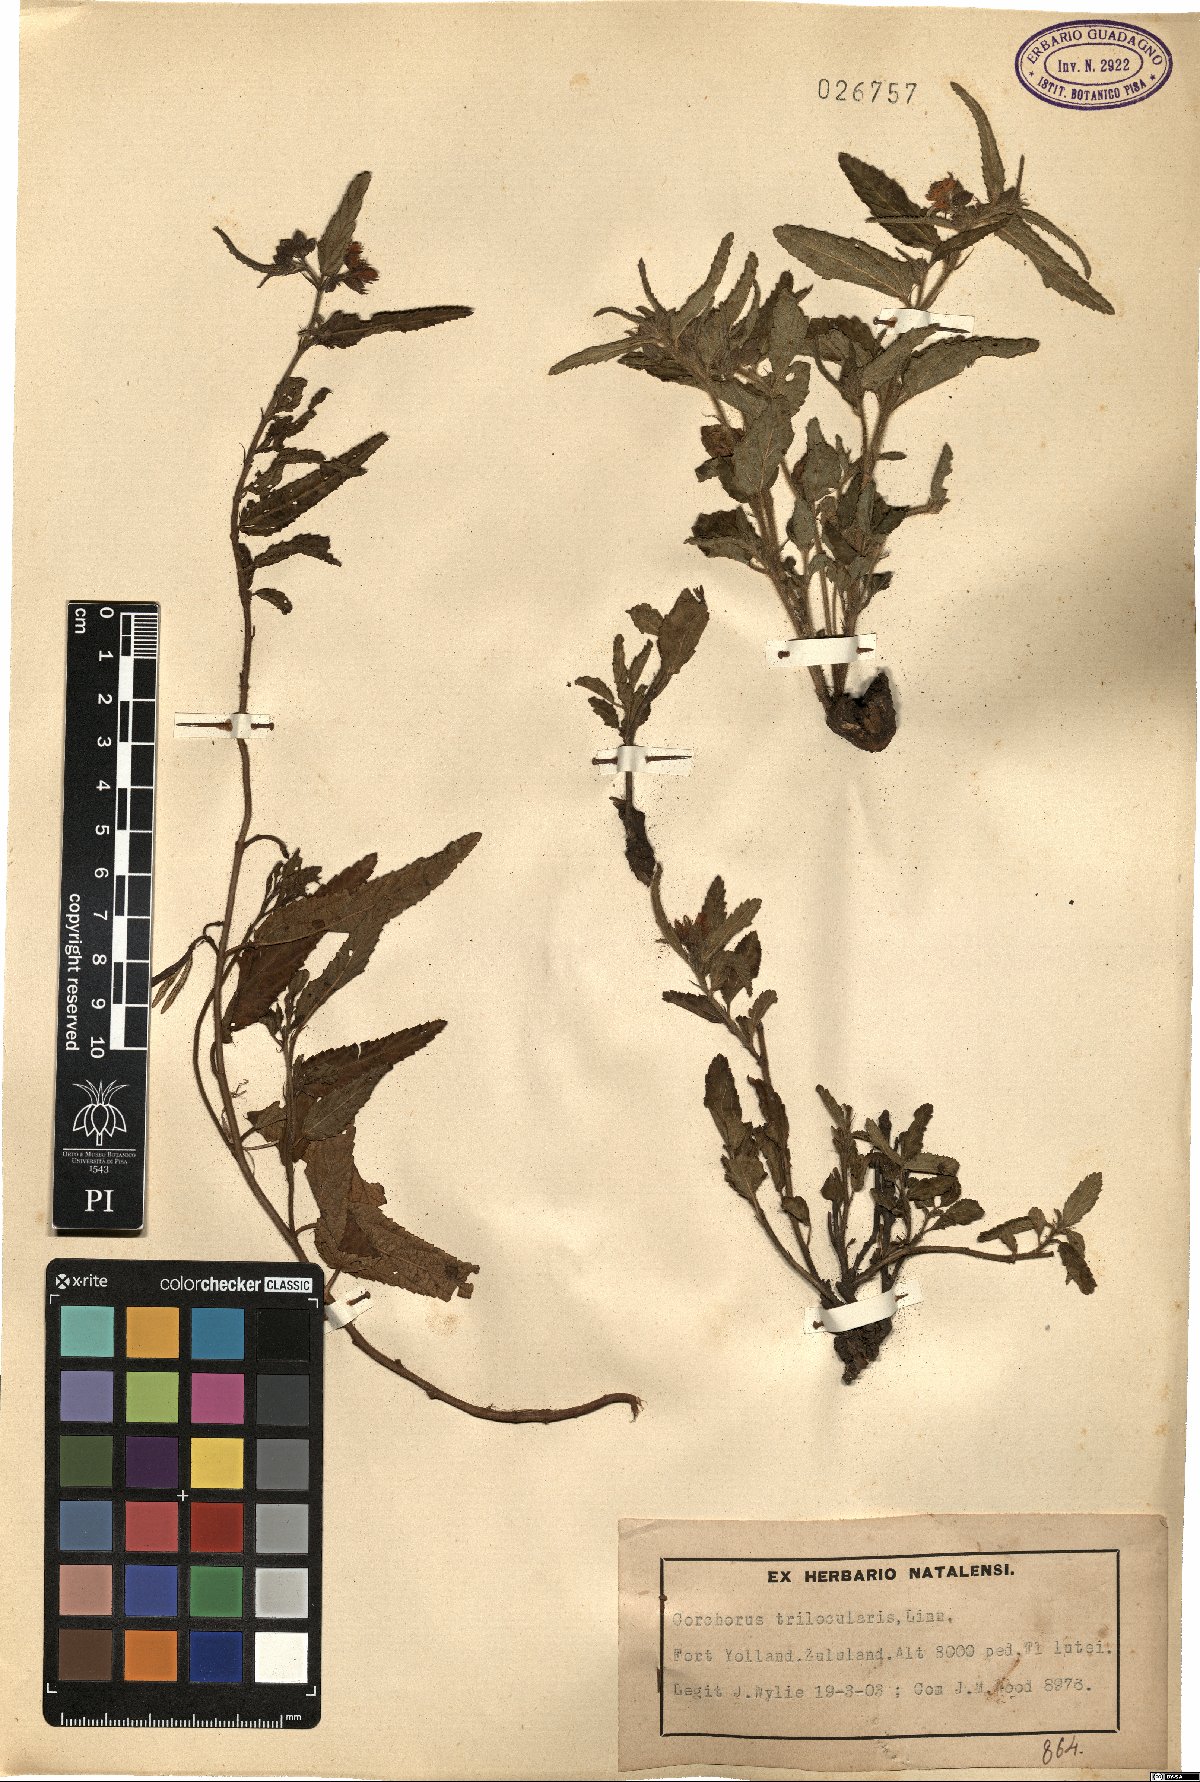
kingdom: Plantae
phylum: Tracheophyta
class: Magnoliopsida
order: Malvales
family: Malvaceae
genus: Corchorus
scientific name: Corchorus trilocularis
